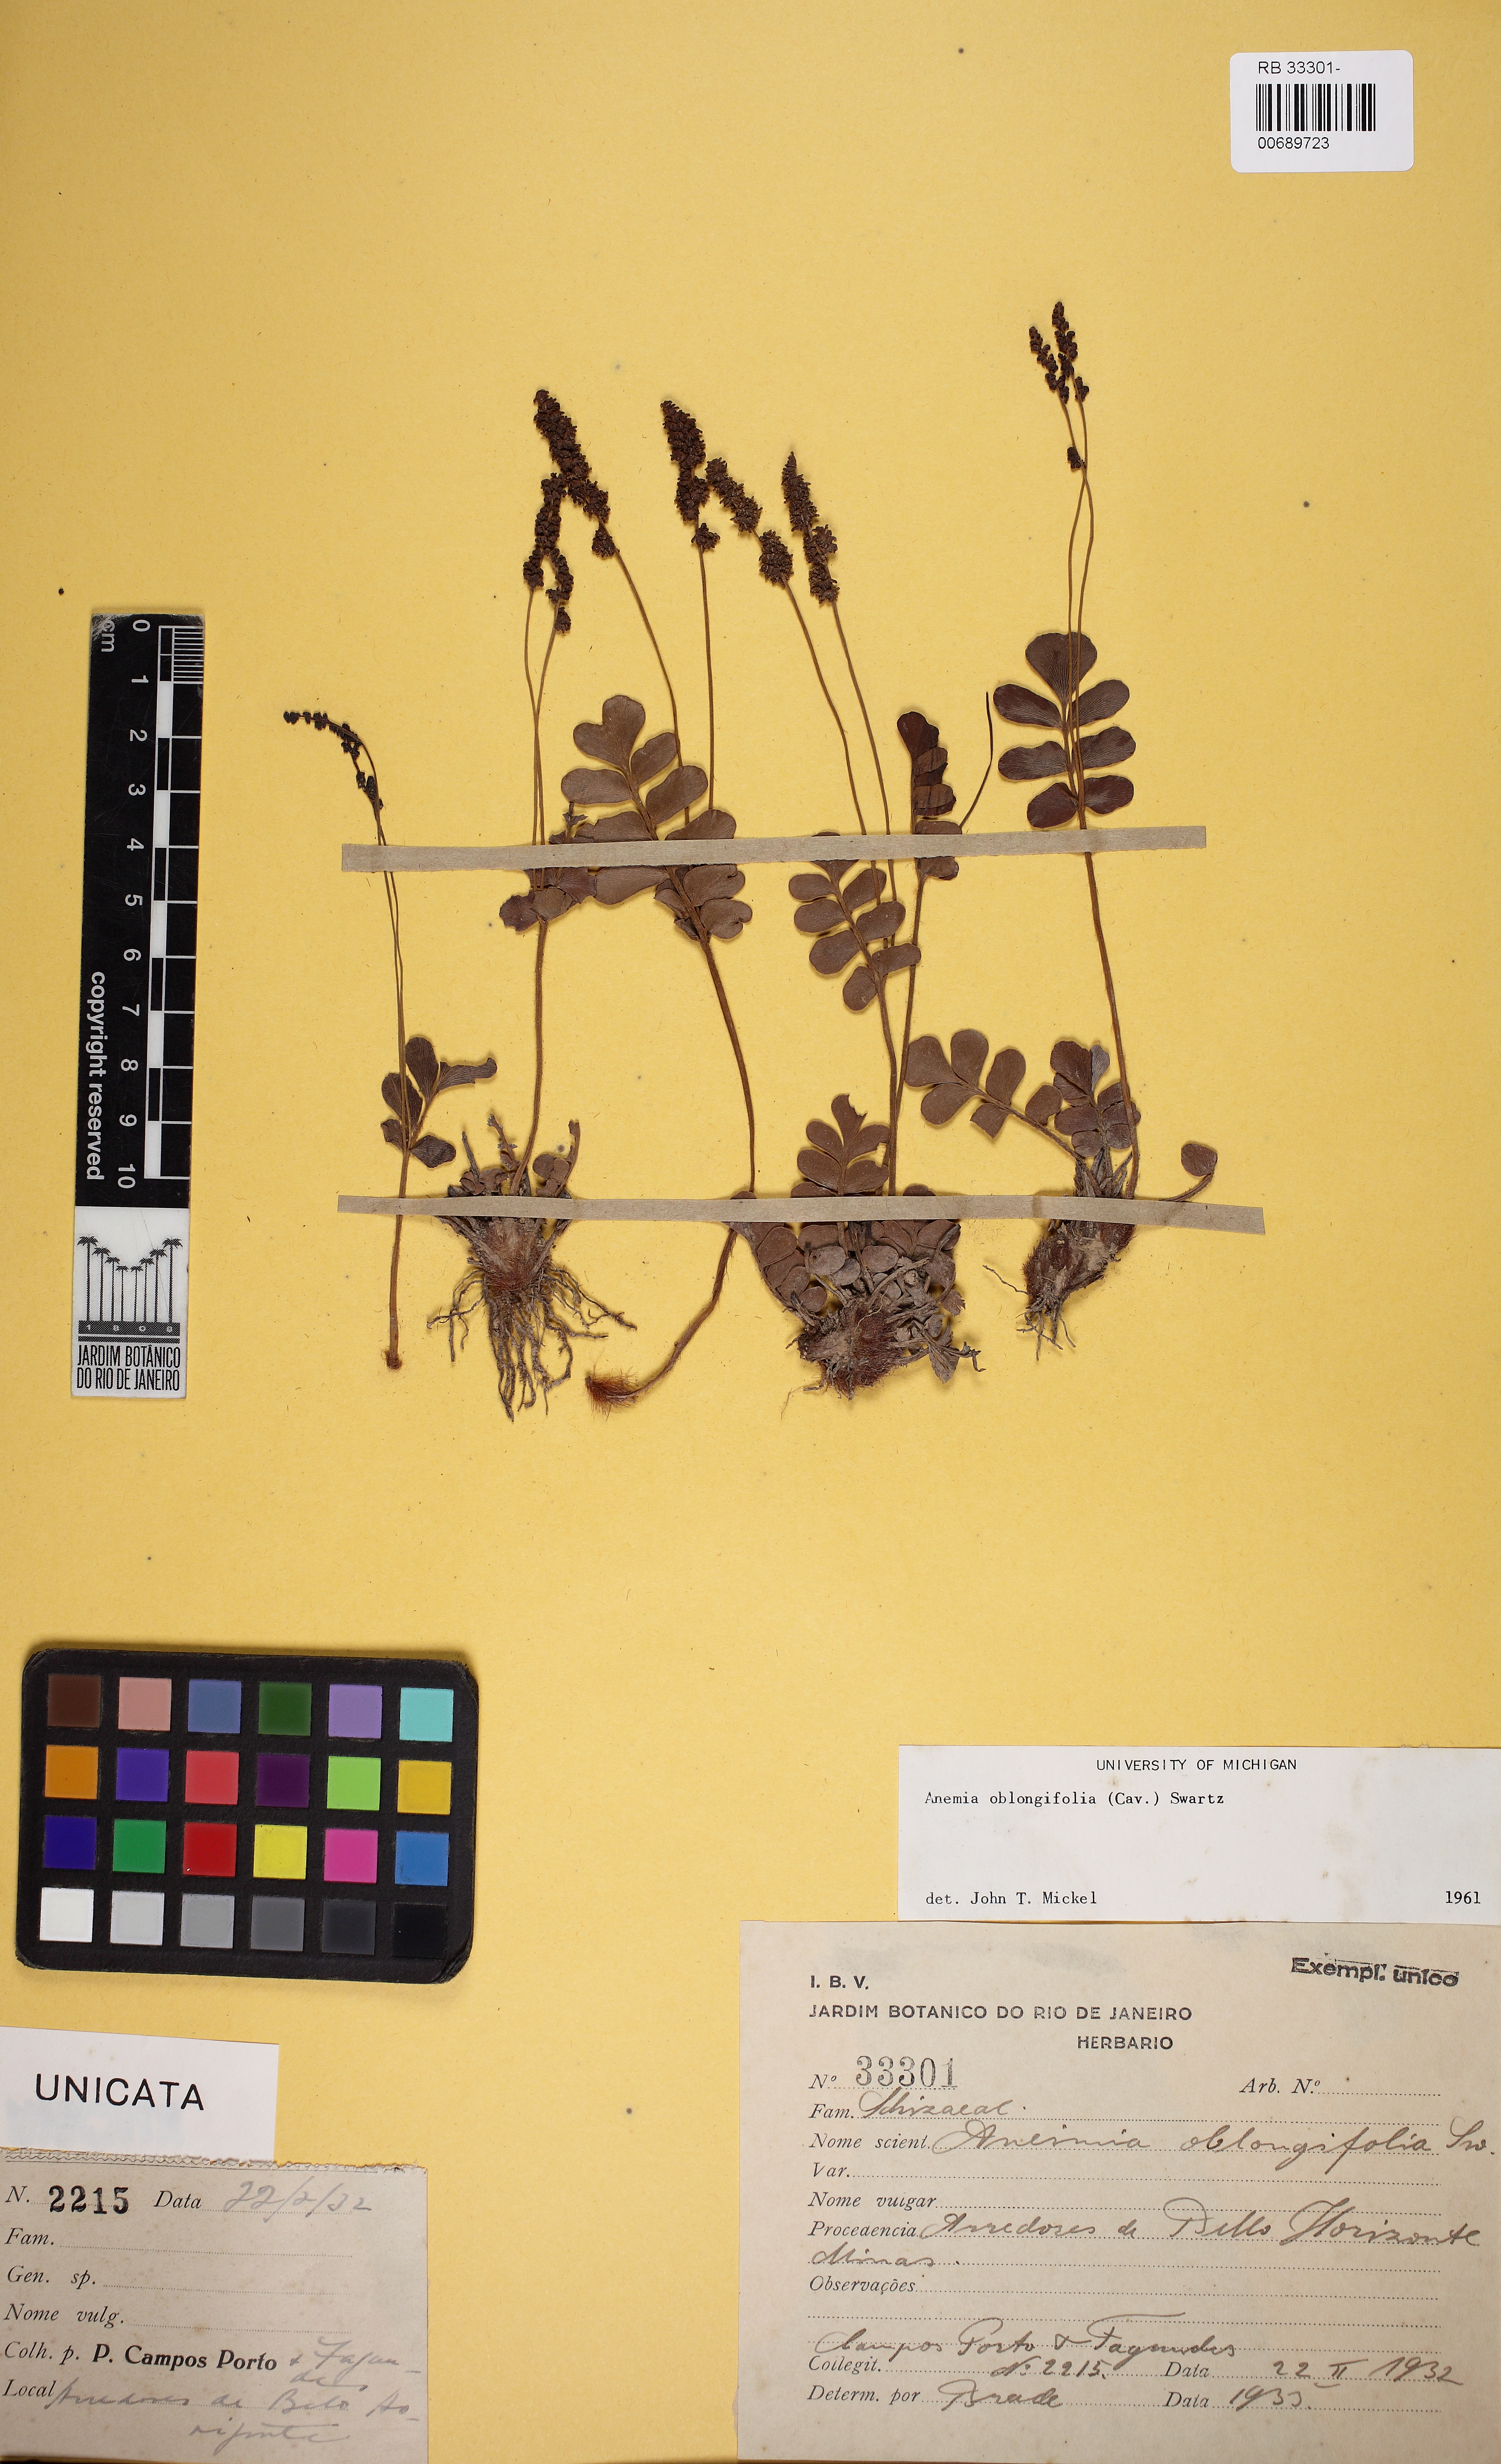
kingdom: Plantae
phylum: Tracheophyta
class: Polypodiopsida
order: Schizaeales
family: Anemiaceae
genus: Anemia
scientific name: Anemia oblongifolia
